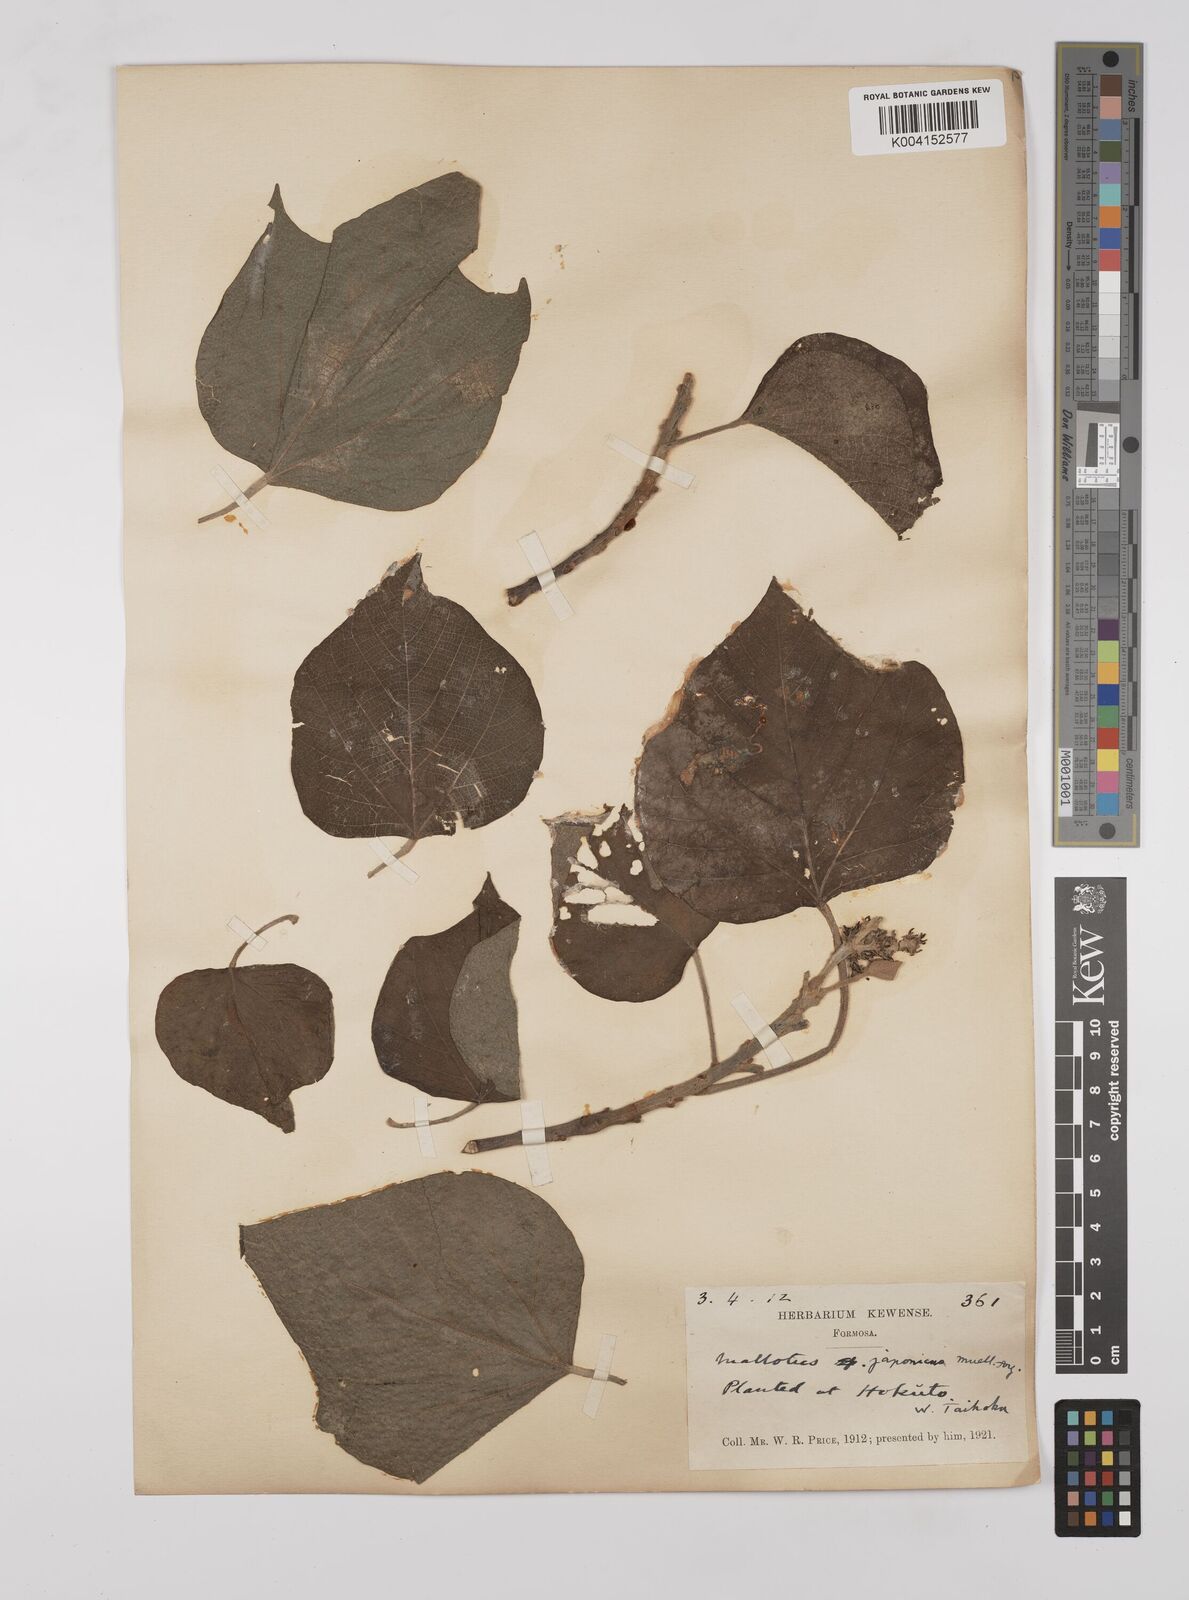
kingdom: Plantae
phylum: Tracheophyta
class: Magnoliopsida
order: Malpighiales
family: Euphorbiaceae
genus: Mallotus
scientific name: Mallotus japonicus
